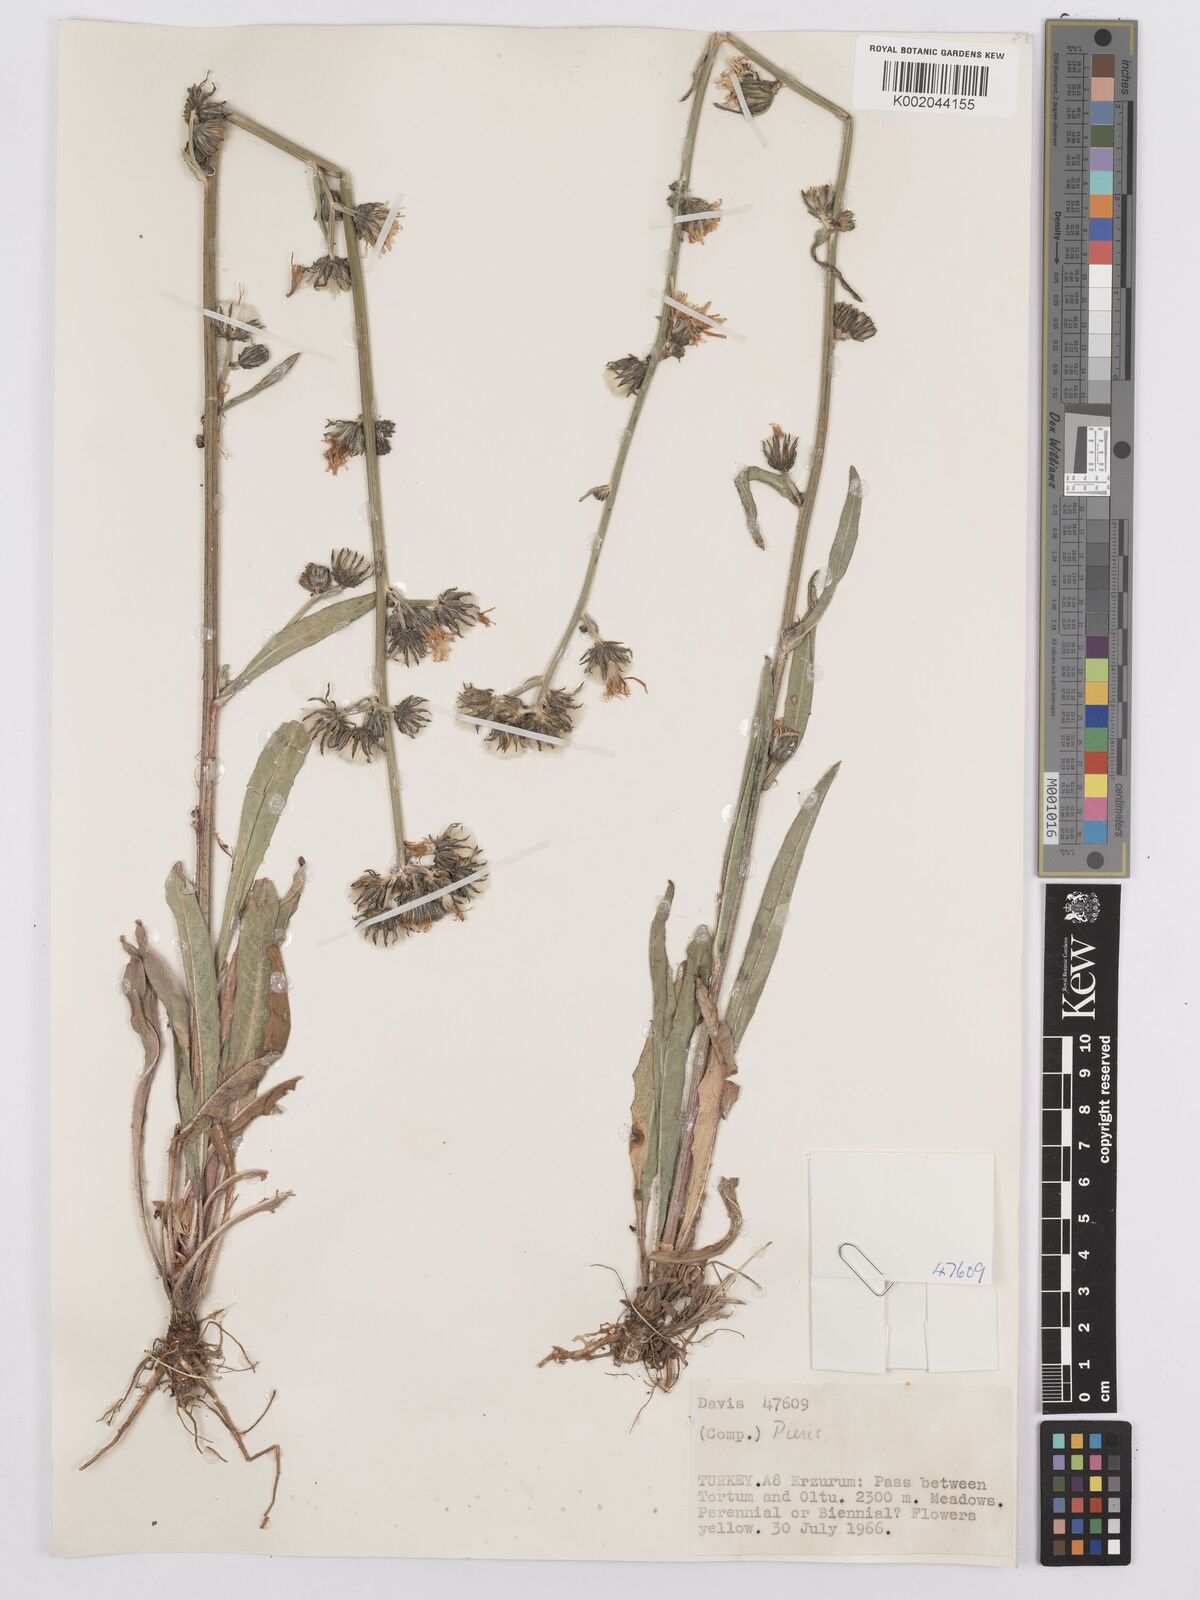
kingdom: Plantae
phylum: Tracheophyta
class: Magnoliopsida
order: Asterales
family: Asteraceae
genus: Picris
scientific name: Picris
